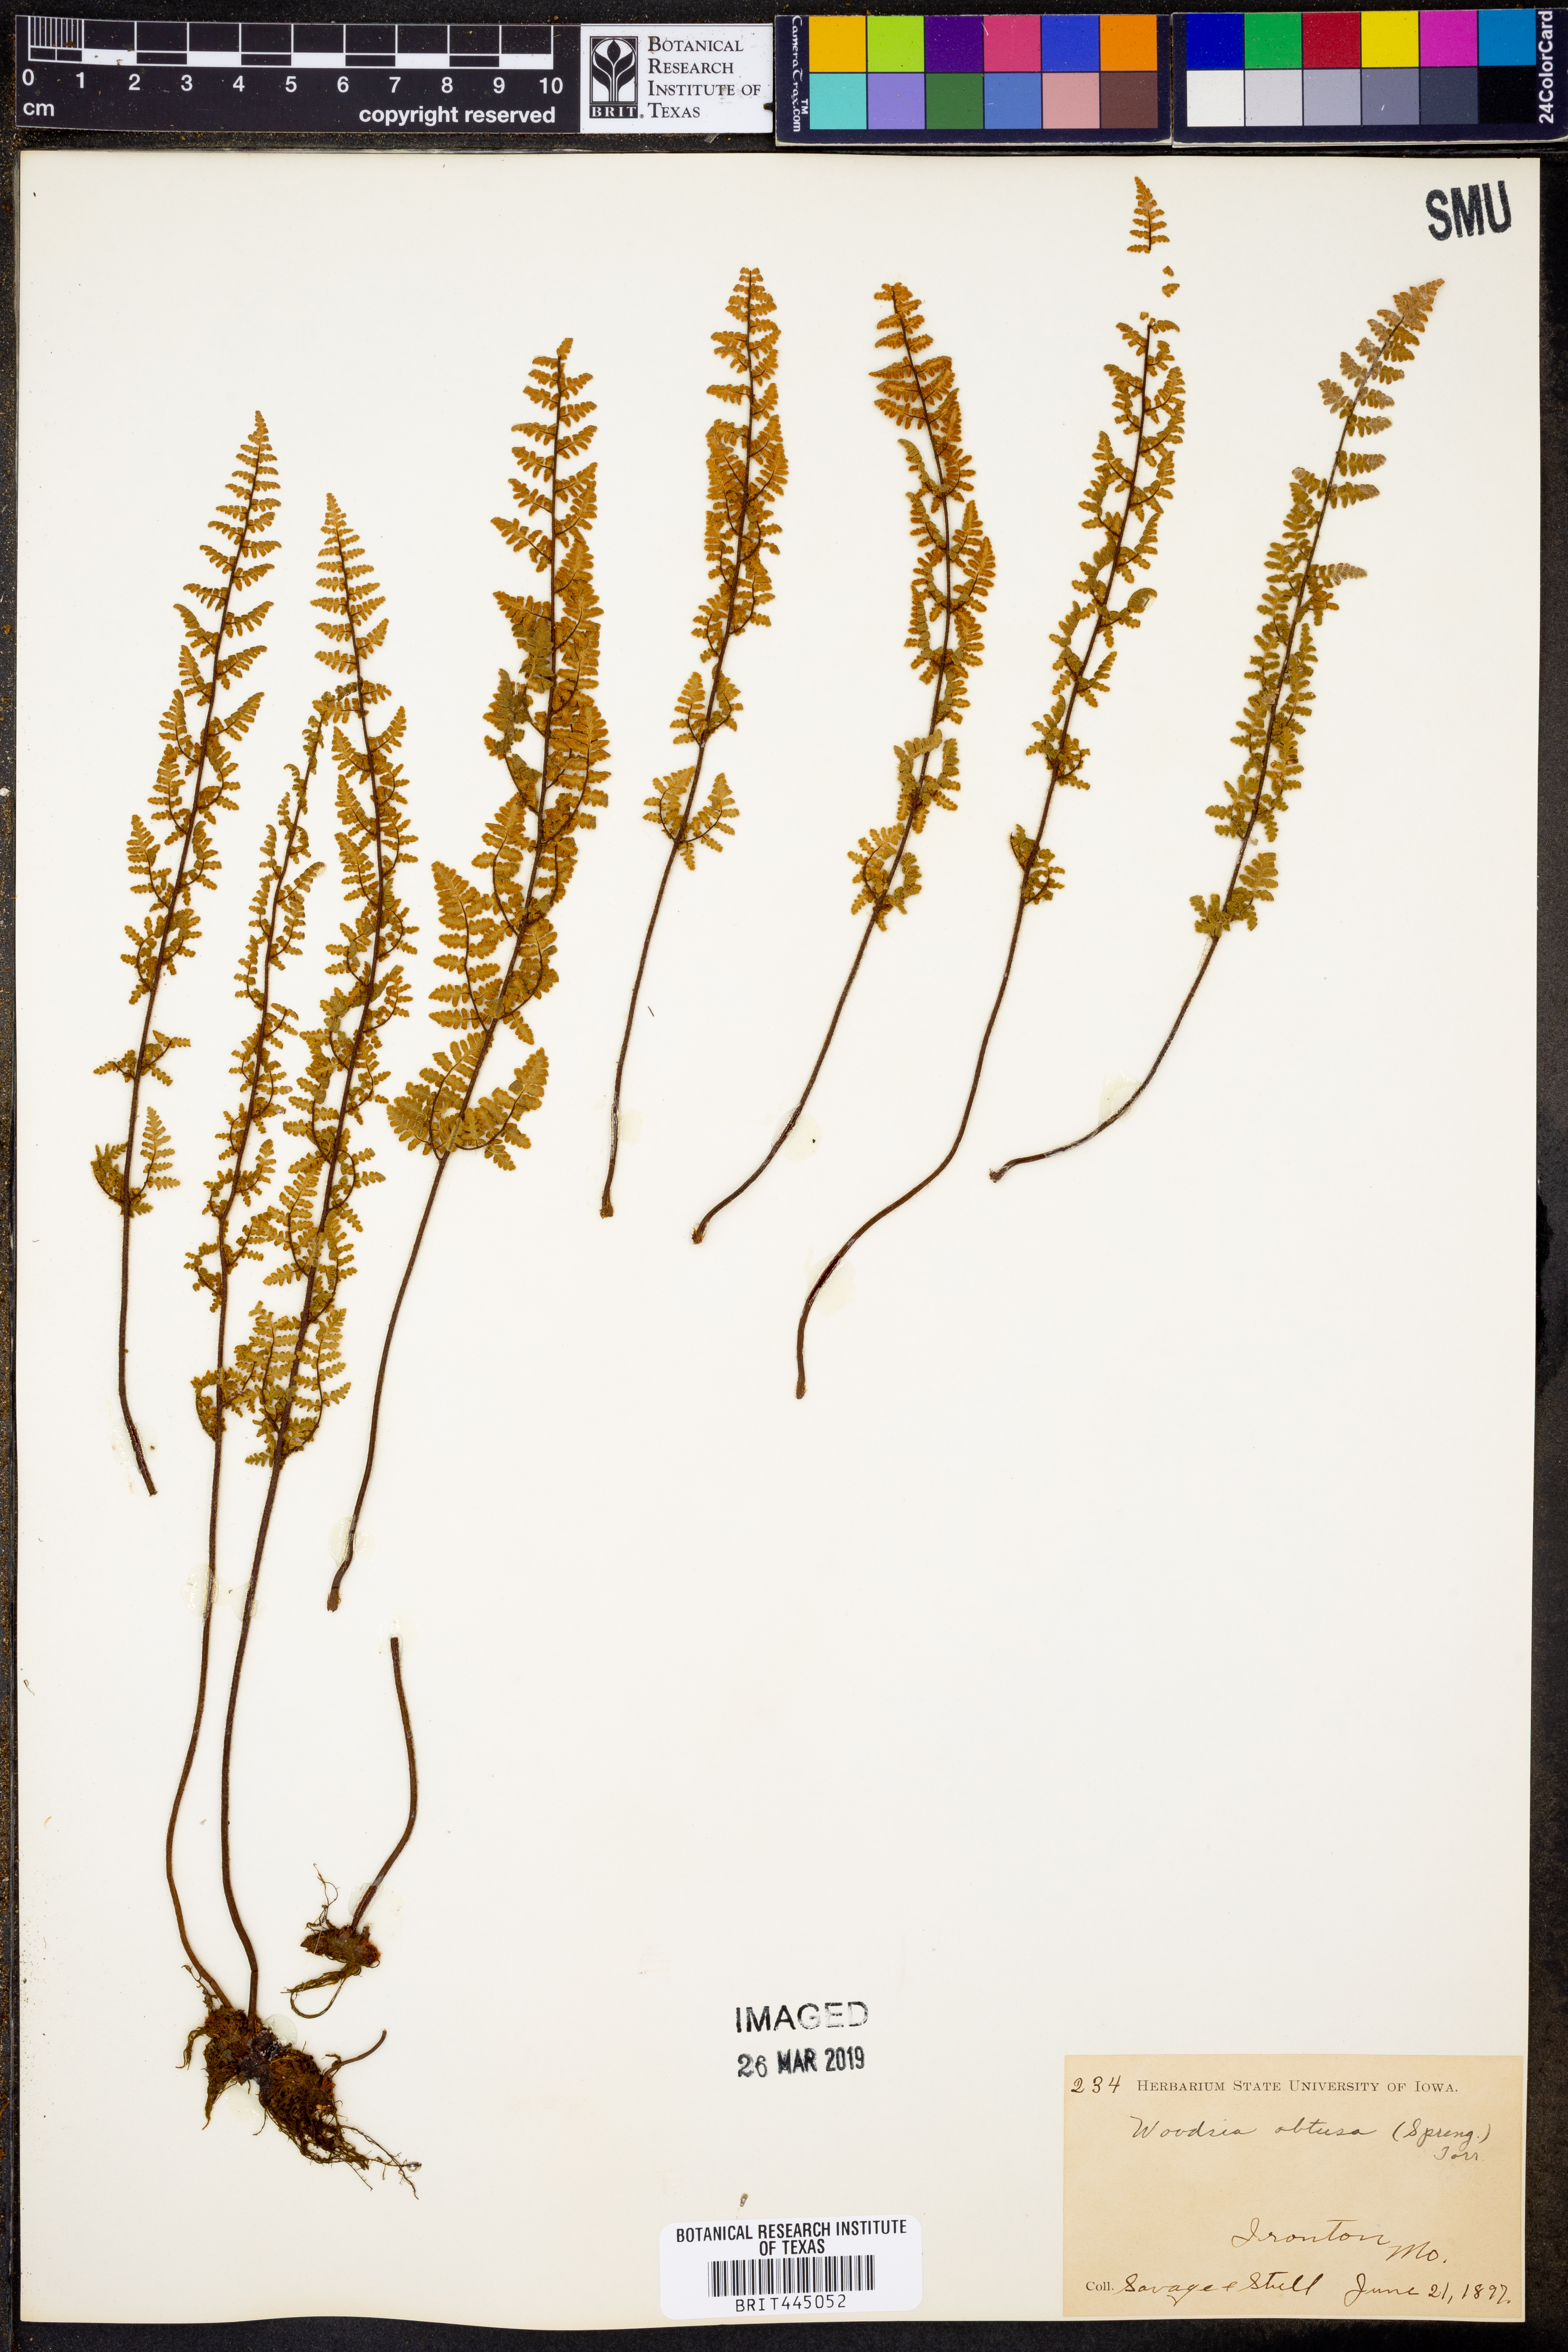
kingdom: Plantae
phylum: Tracheophyta
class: Polypodiopsida
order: Polypodiales
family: Woodsiaceae
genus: Physematium
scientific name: Physematium obtusum
